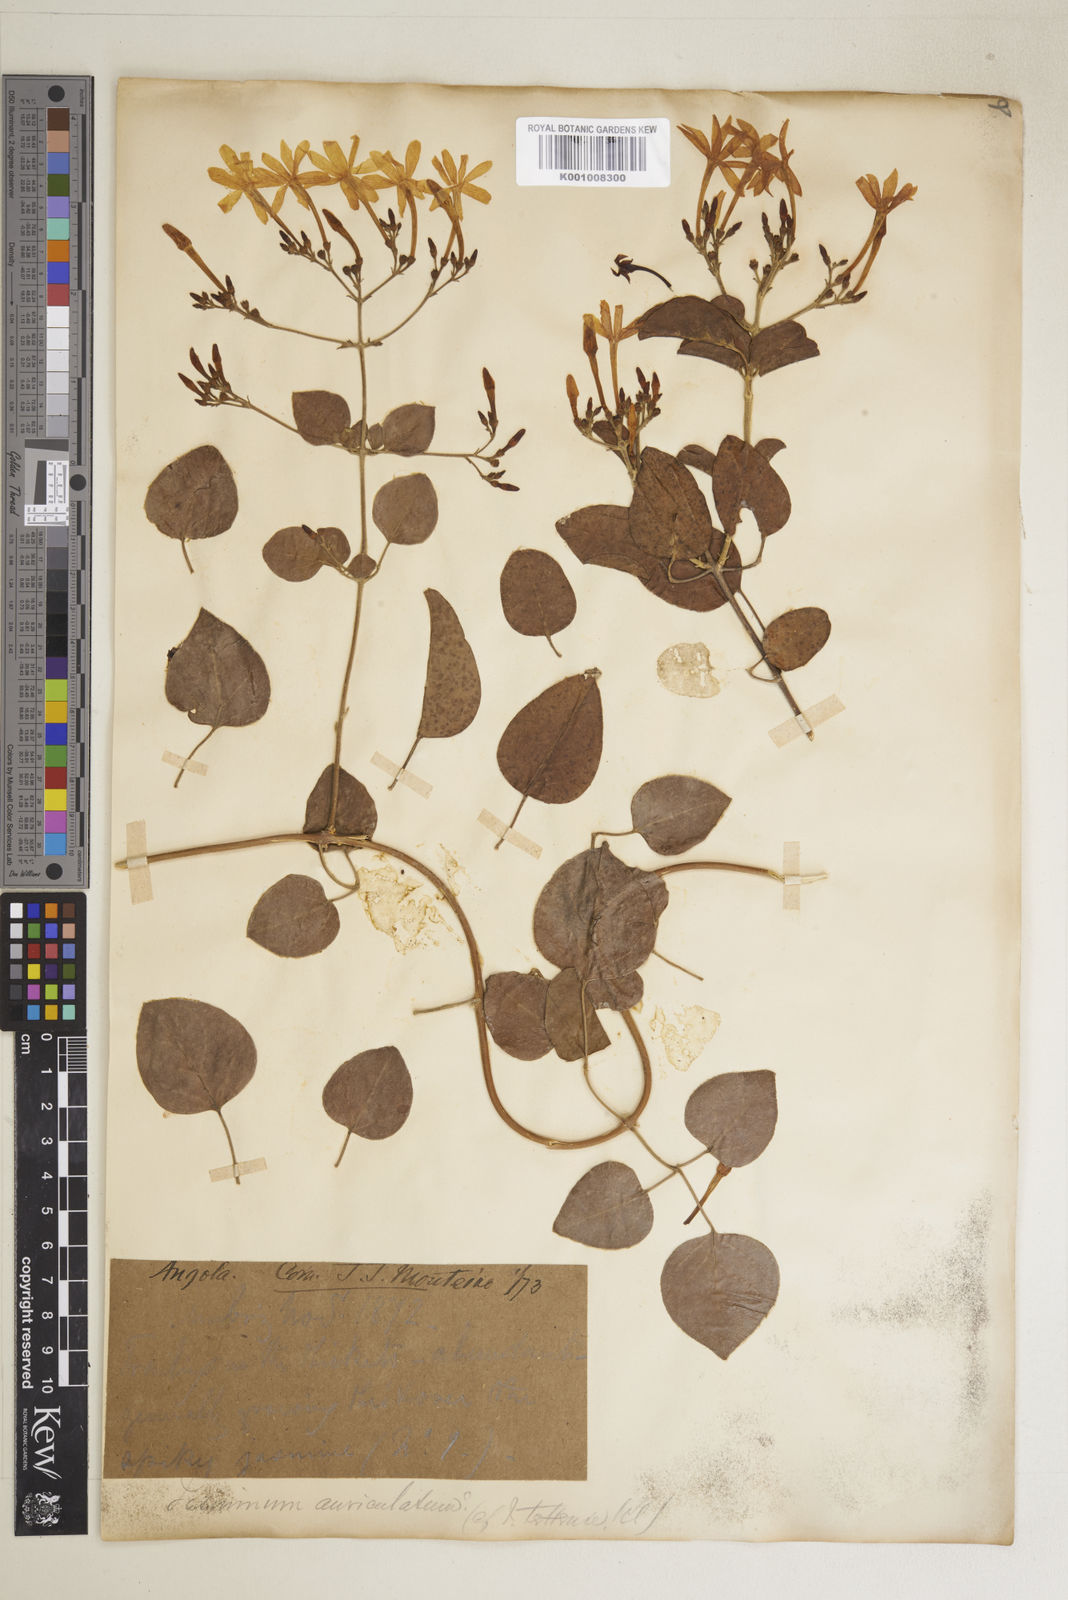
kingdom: Plantae
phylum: Tracheophyta
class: Magnoliopsida
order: Lamiales
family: Oleaceae
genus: Jasminum
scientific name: Jasminum fluminense
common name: Brazilian jasmine
